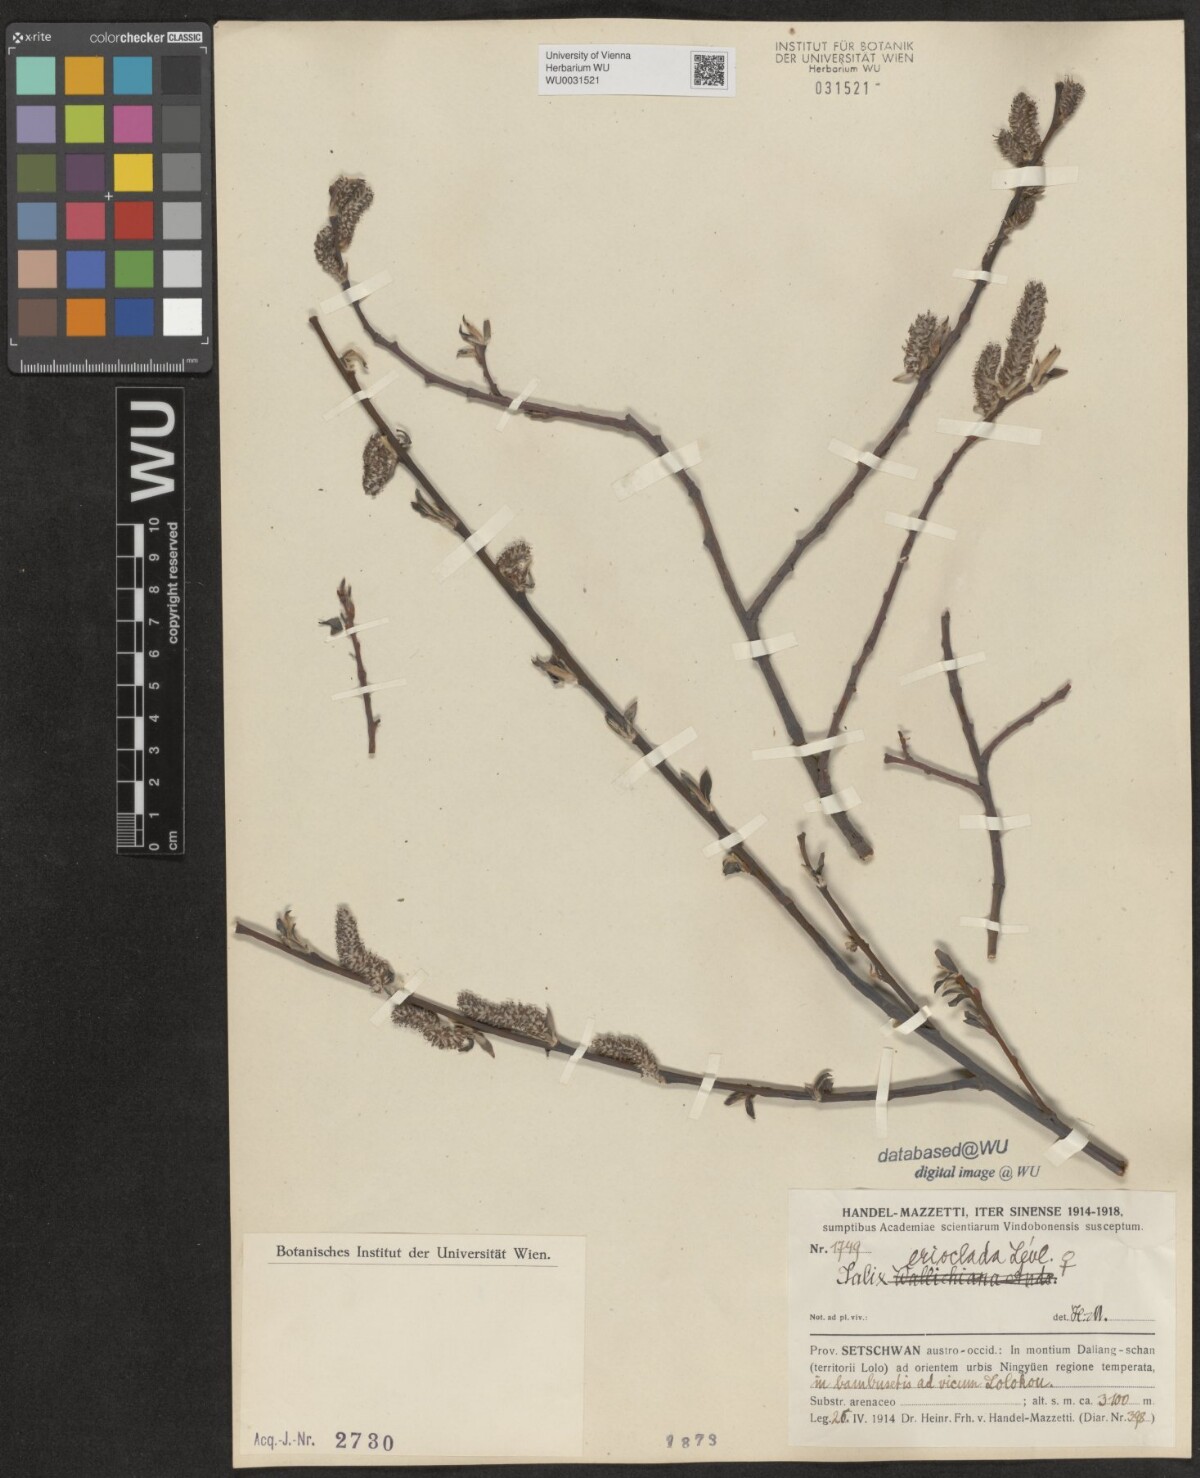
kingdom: Plantae
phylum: Tracheophyta
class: Magnoliopsida
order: Malpighiales
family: Salicaceae
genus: Salix
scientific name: Salix erioclada
